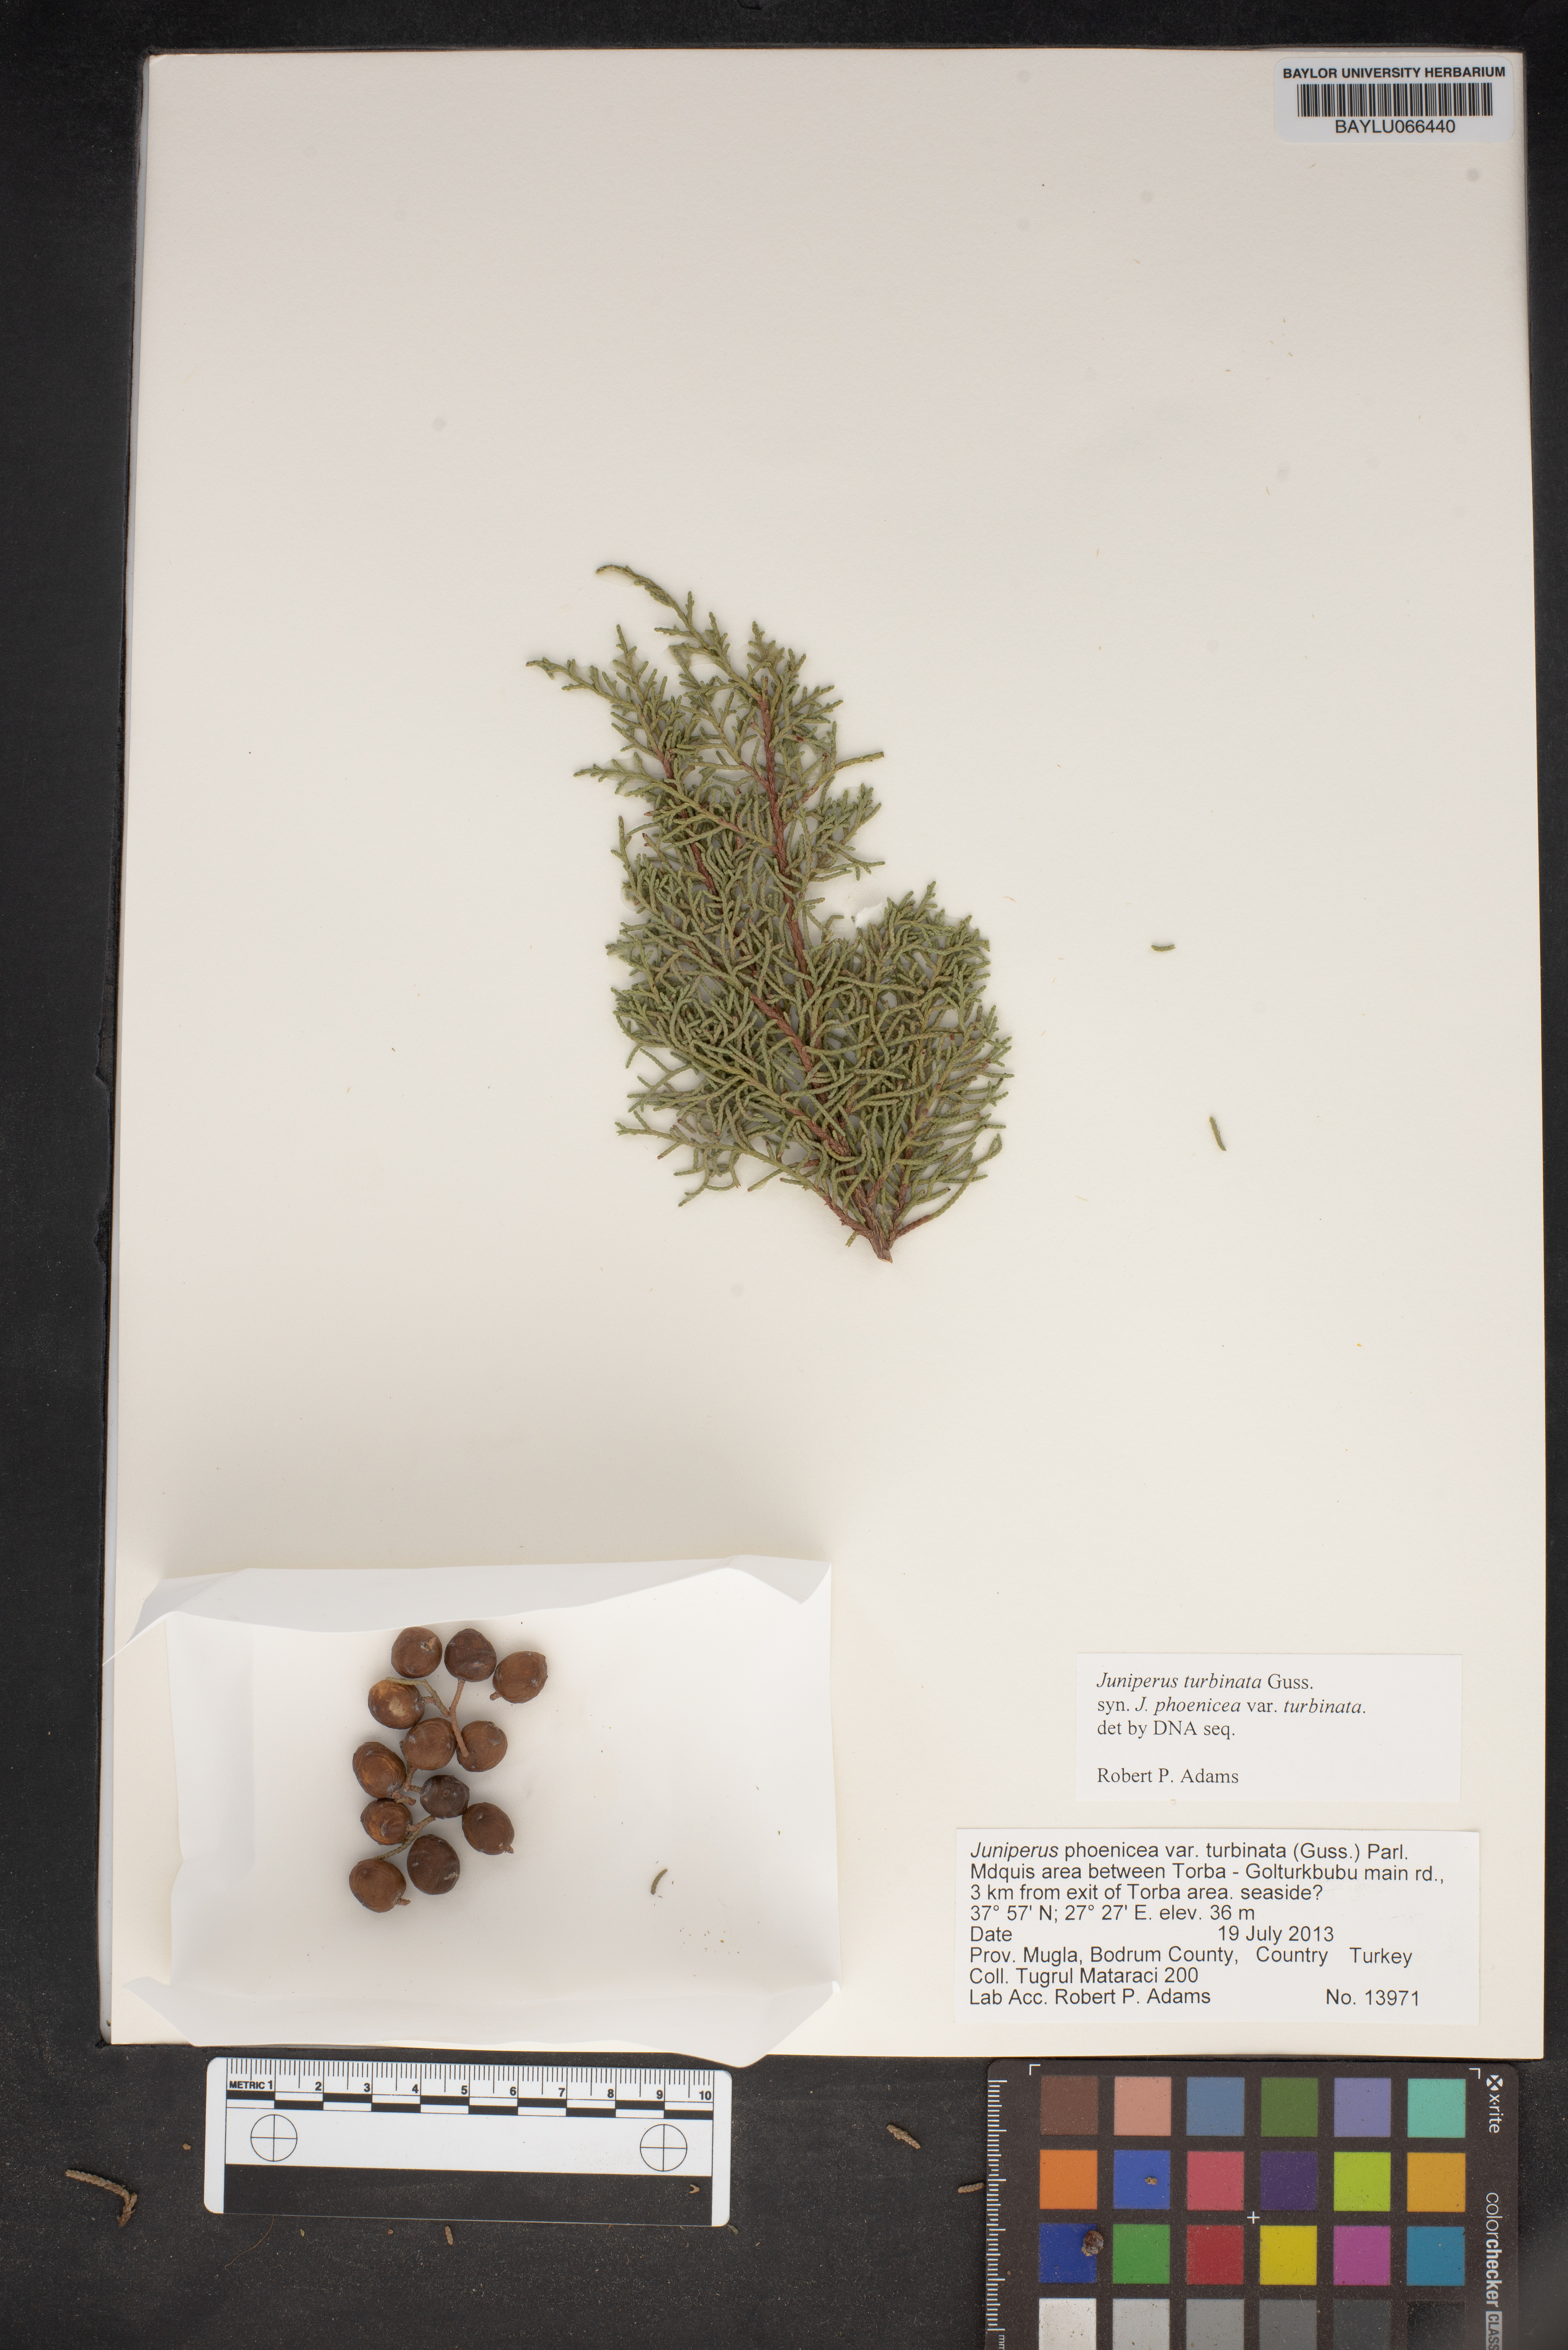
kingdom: Plantae
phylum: Tracheophyta
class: Pinopsida
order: Pinales
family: Cupressaceae
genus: Juniperus
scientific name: Juniperus phoenicea
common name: Phoenician juniper
